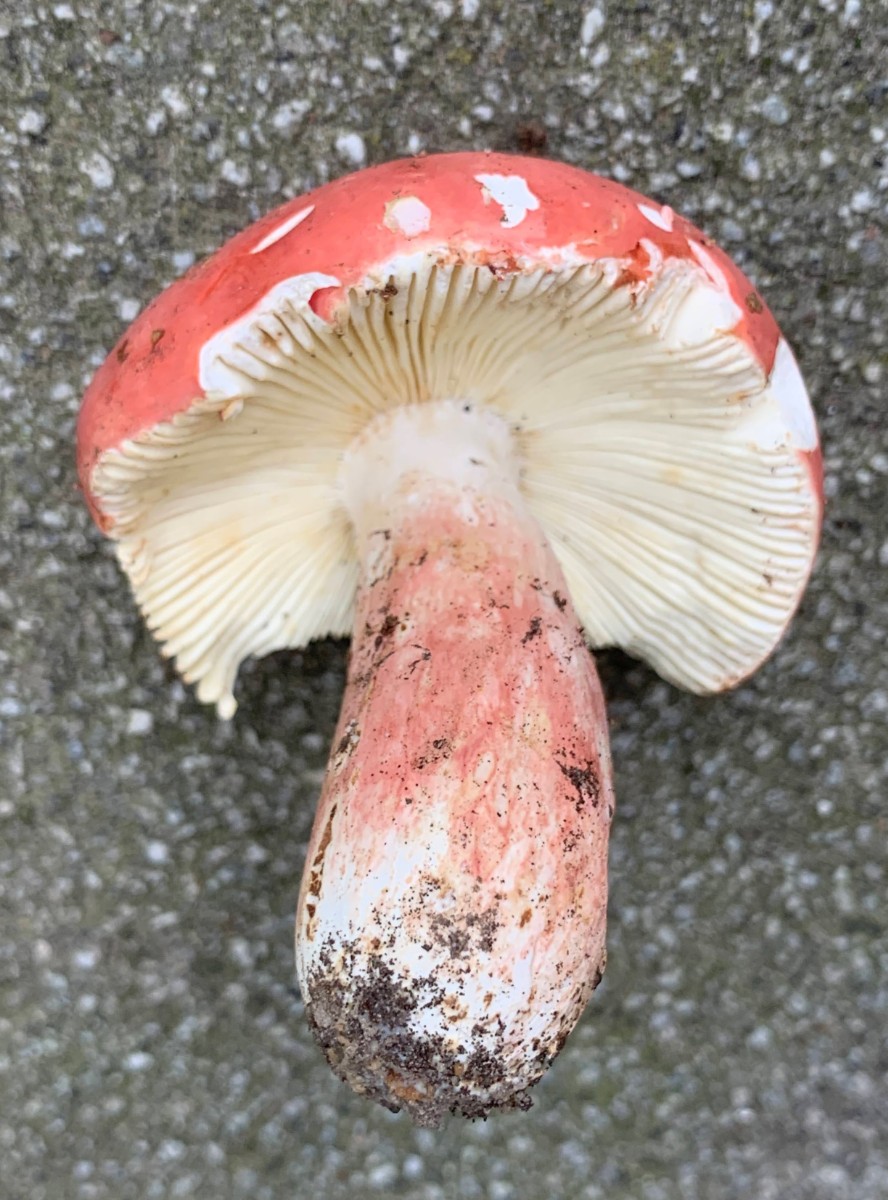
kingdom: Fungi
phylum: Basidiomycota
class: Agaricomycetes
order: Russulales
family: Russulaceae
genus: Russula
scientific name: Russula rosea
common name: fastkødet skørhat
